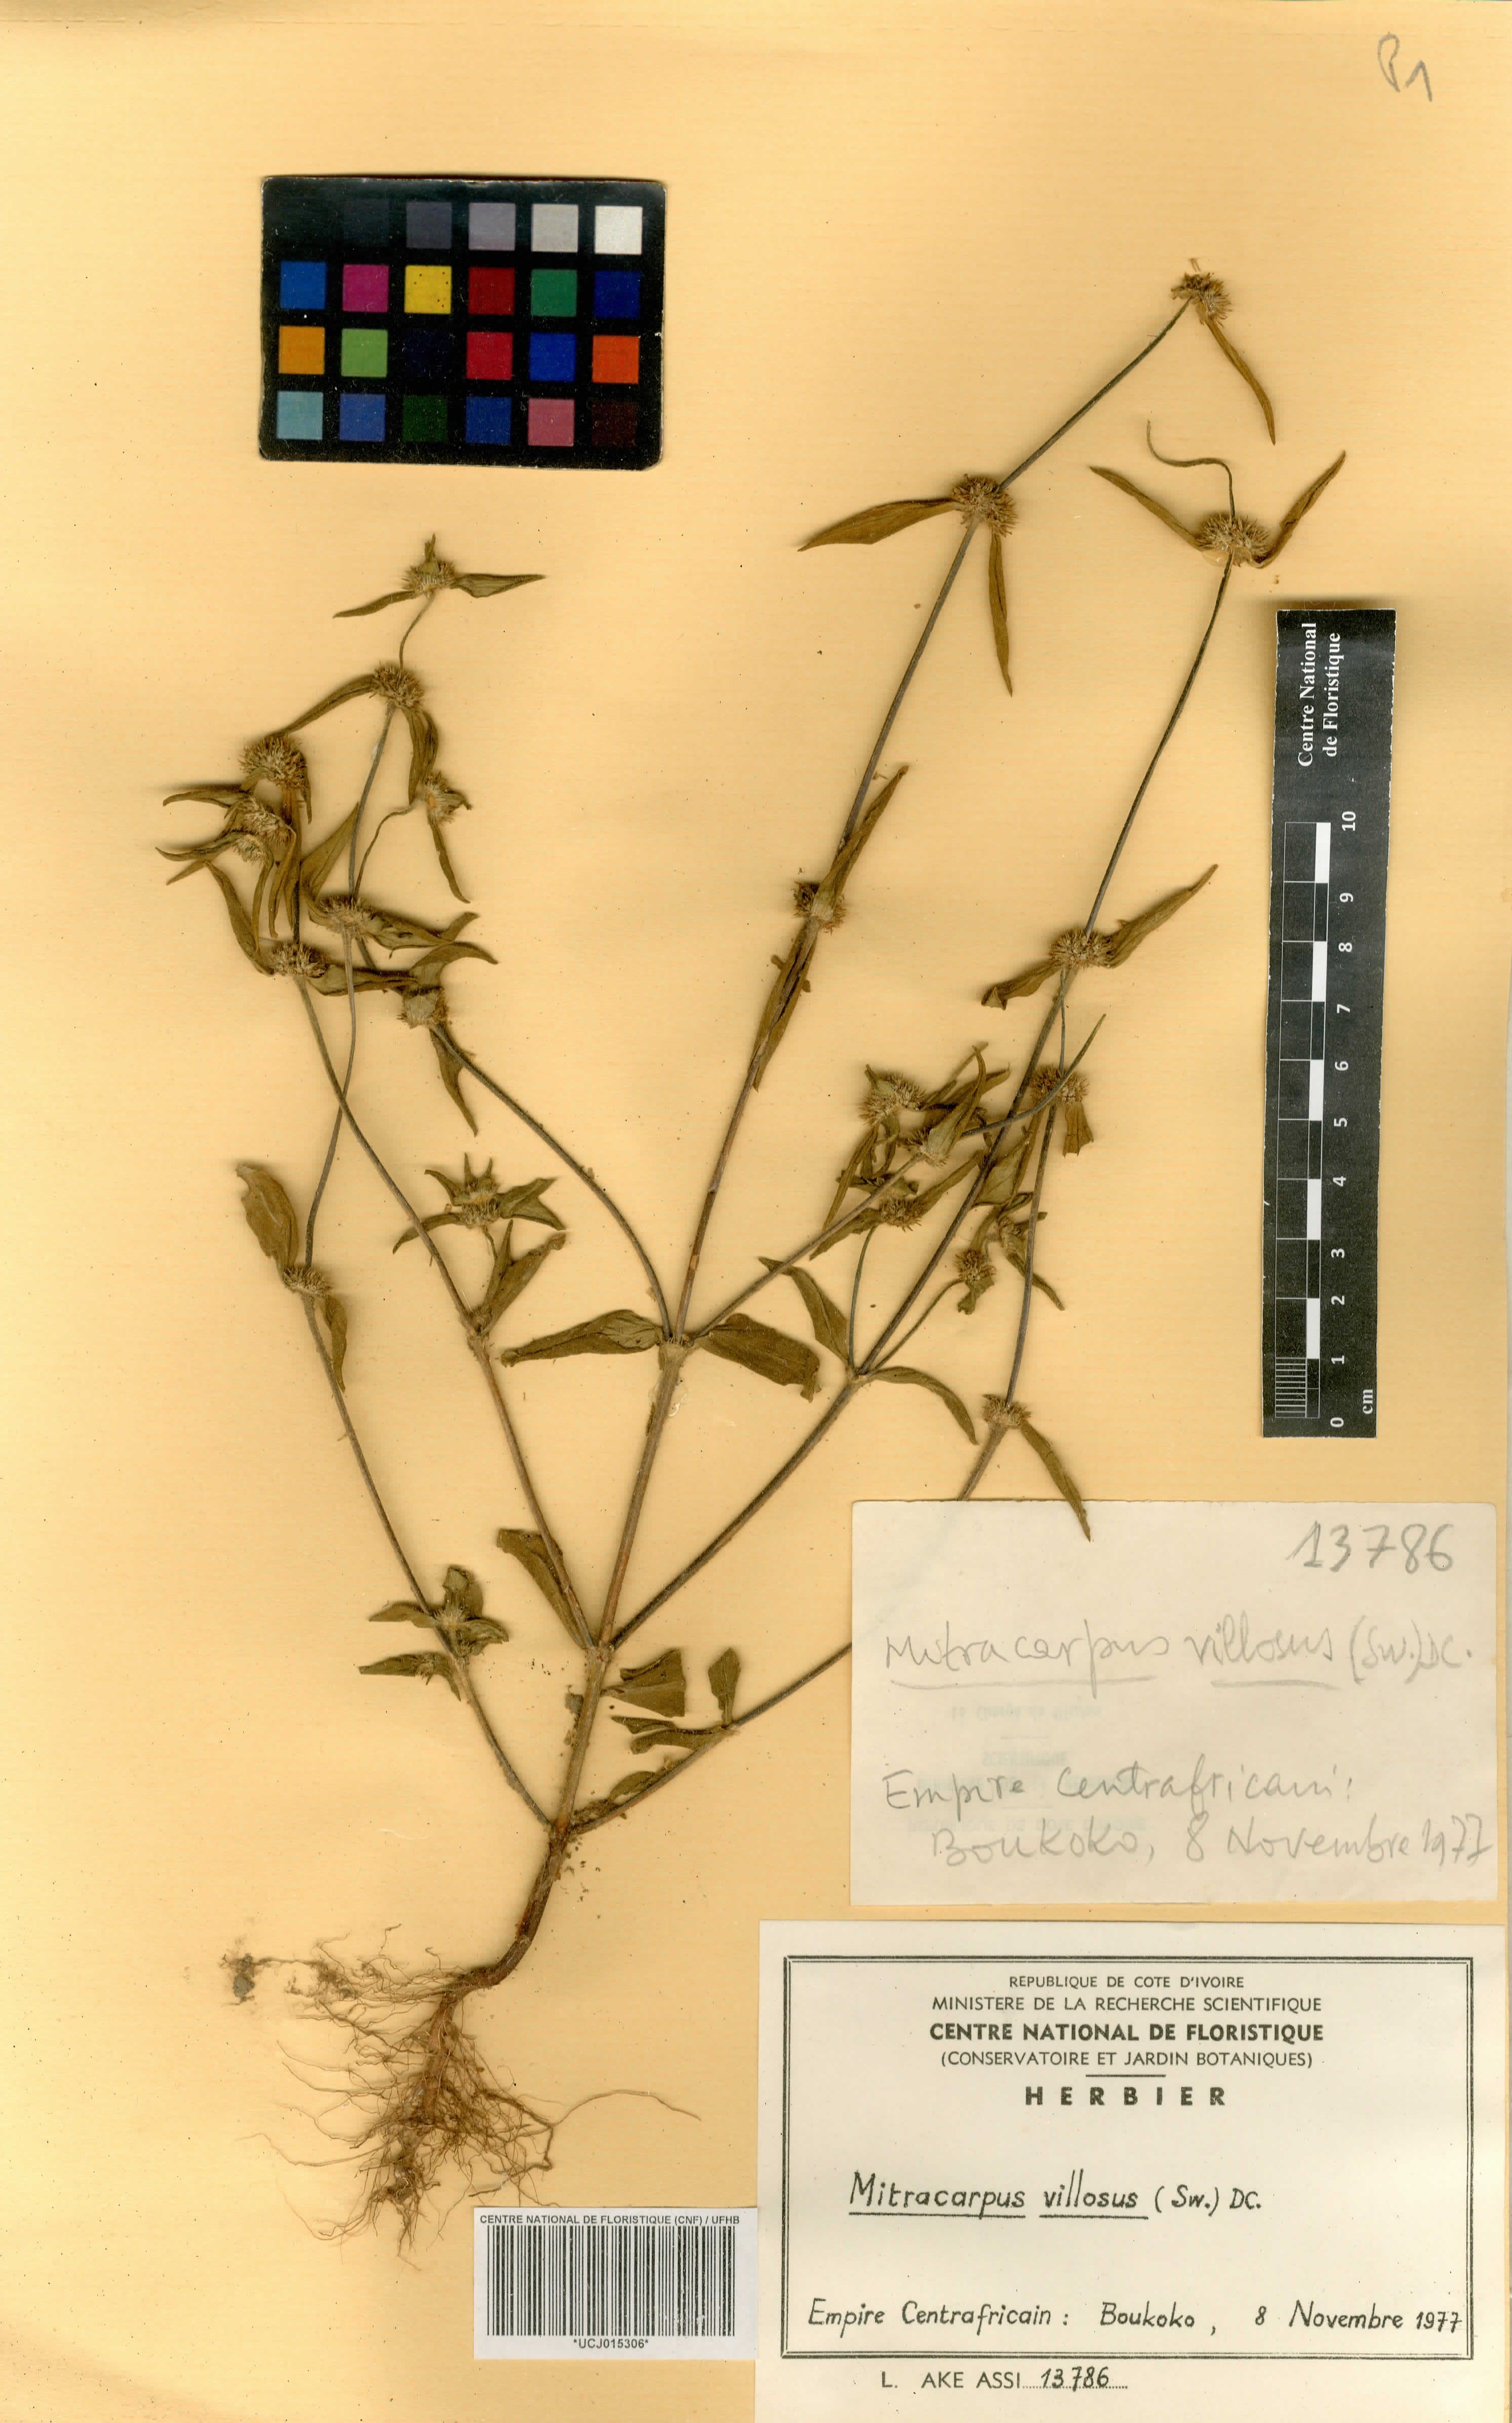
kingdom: Plantae
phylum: Tracheophyta
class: Magnoliopsida
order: Gentianales
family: Rubiaceae
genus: Mitracarpus
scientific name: Mitracarpus hirtus
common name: Tropical girdlepod
